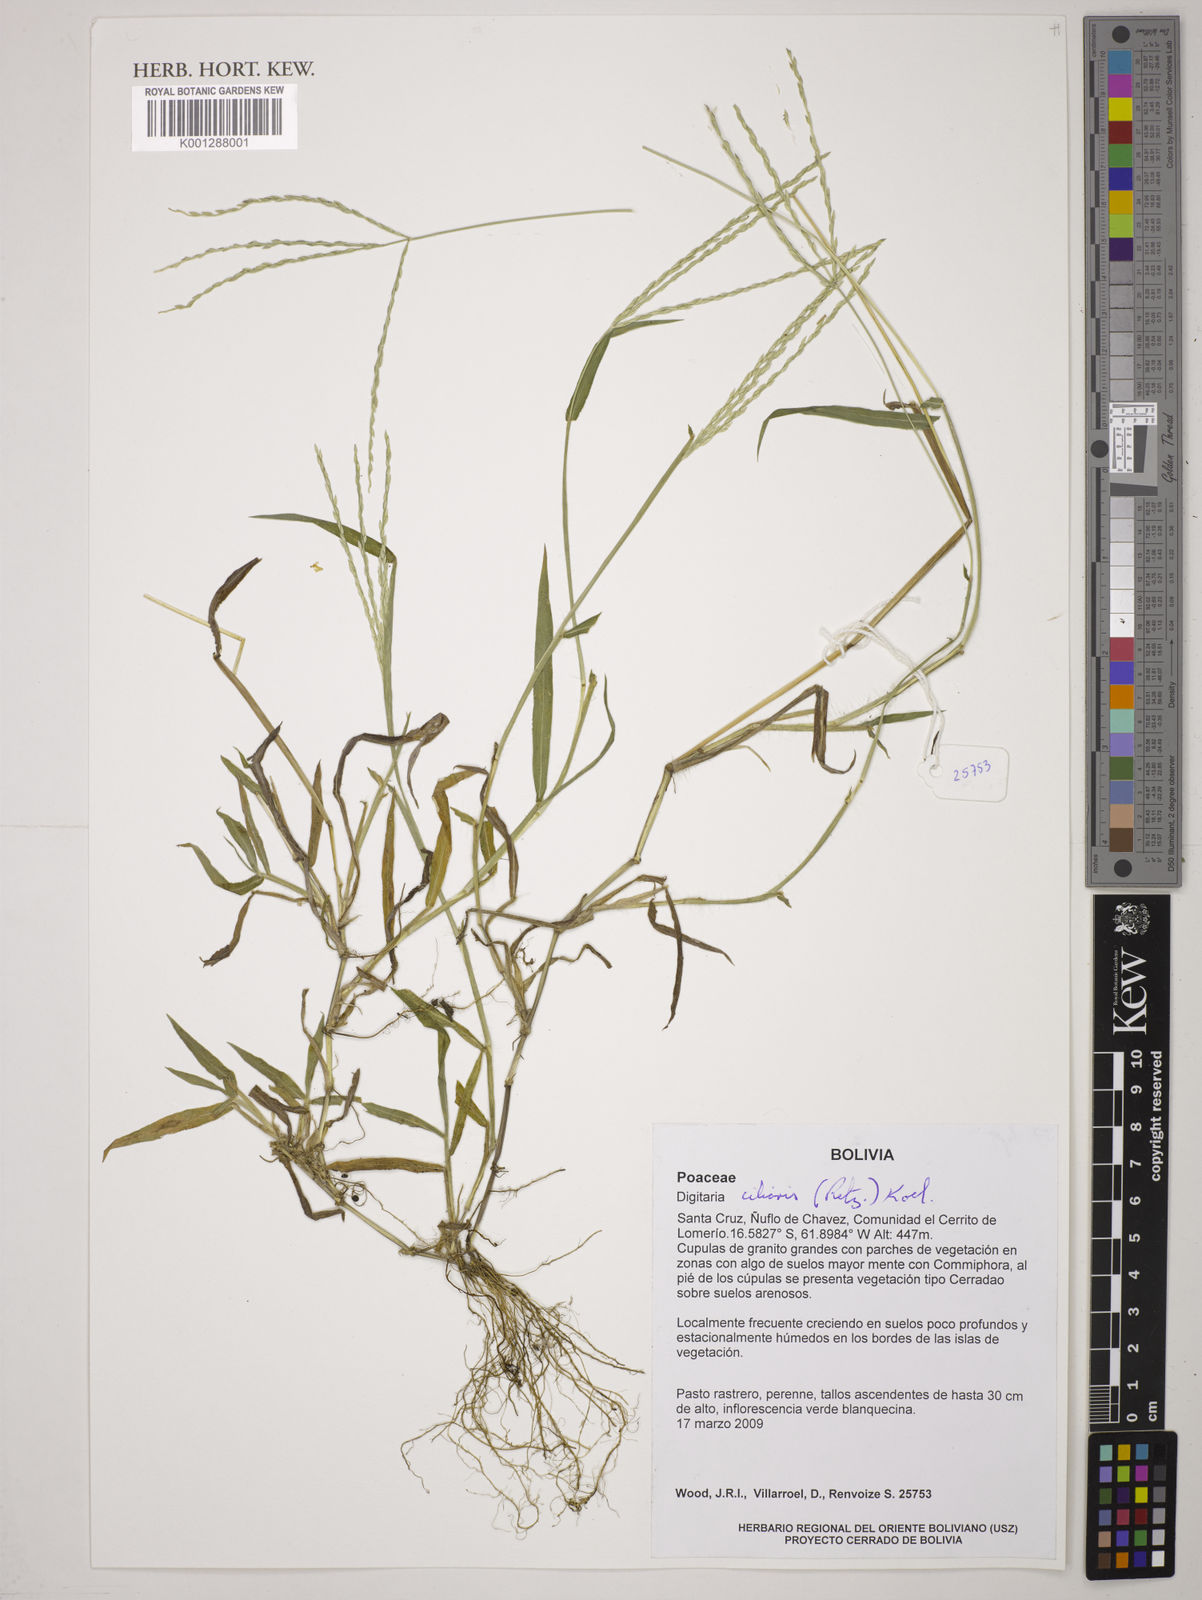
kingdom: Plantae
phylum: Tracheophyta
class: Liliopsida
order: Poales
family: Poaceae
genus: Digitaria
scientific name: Digitaria
